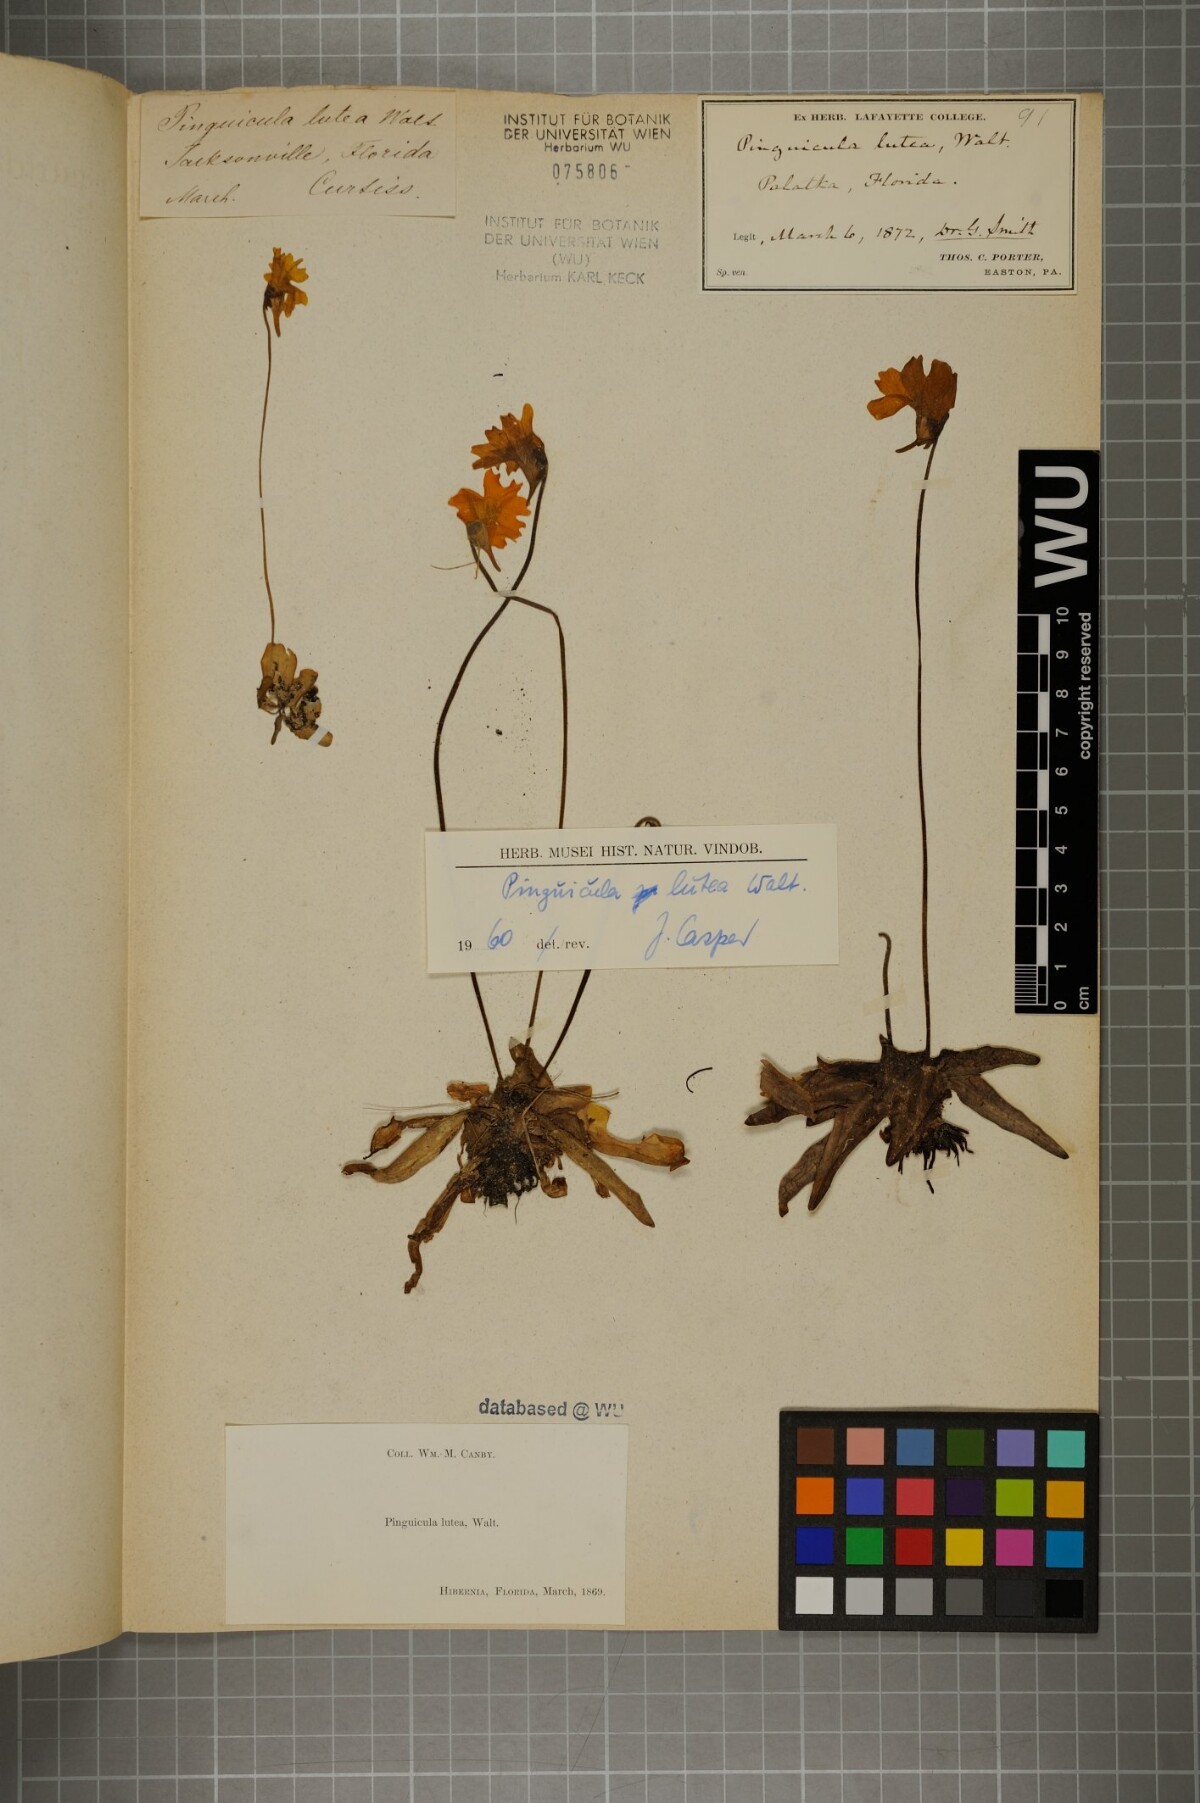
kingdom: Plantae
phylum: Tracheophyta
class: Magnoliopsida
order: Lamiales
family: Lentibulariaceae
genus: Pinguicula
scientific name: Pinguicula lutea
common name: Yellow butterwort
